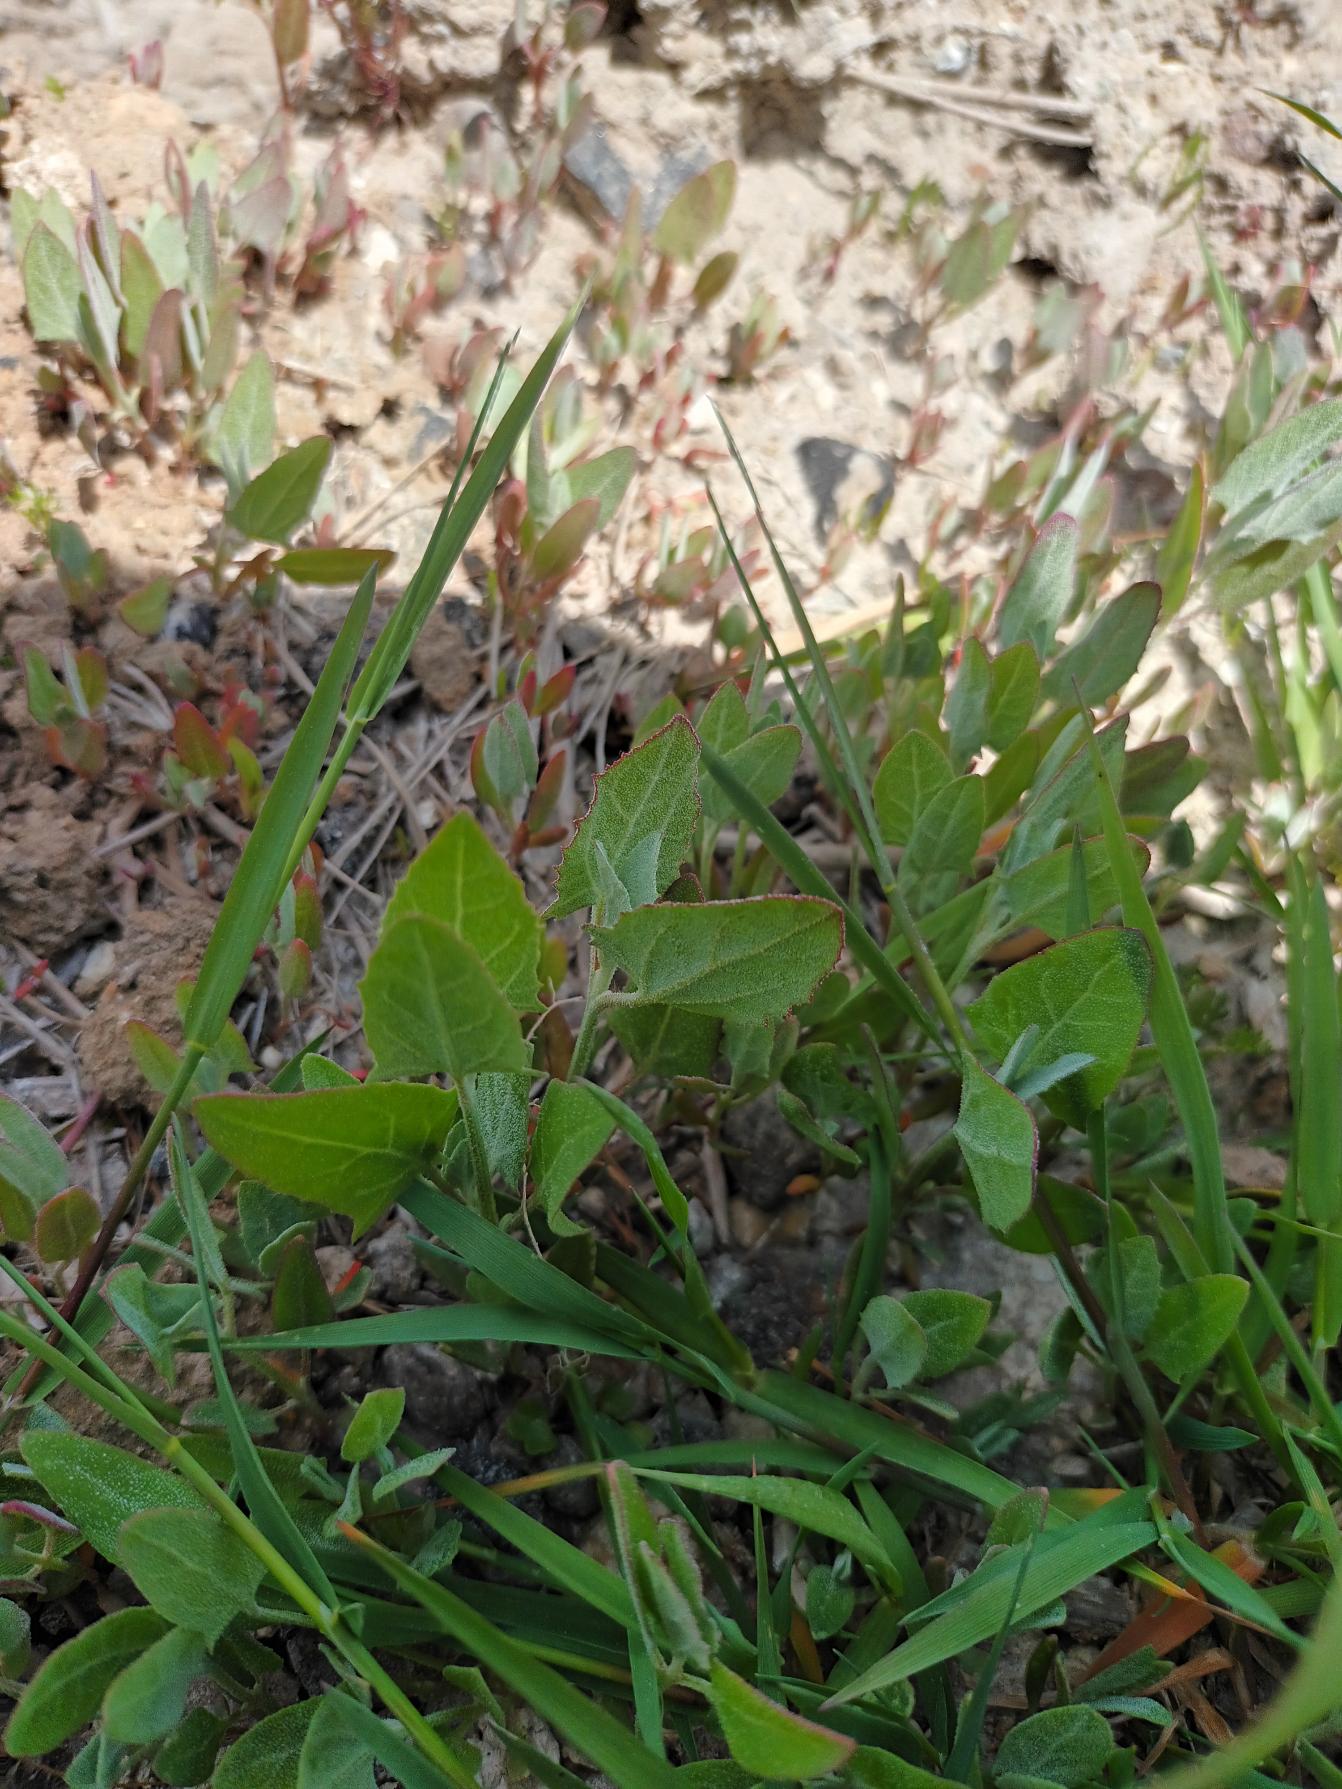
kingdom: Plantae
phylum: Tracheophyta
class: Magnoliopsida
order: Caryophyllales
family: Amaranthaceae
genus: Atriplex
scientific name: Atriplex prostrata
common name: Spyd-mælde
